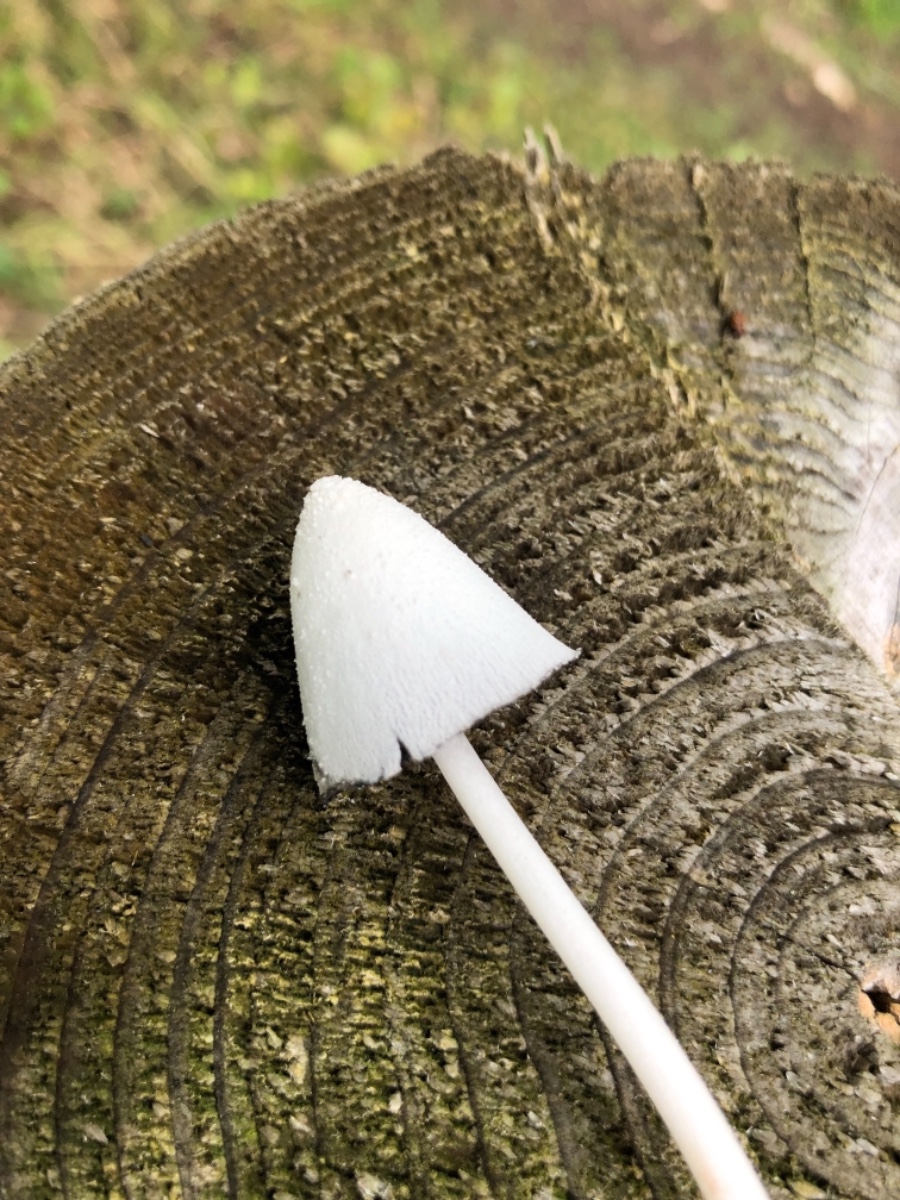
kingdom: Fungi
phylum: Basidiomycota
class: Agaricomycetes
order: Agaricales
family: Psathyrellaceae
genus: Coprinopsis
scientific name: Coprinopsis nivea
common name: snehvid blækhat
